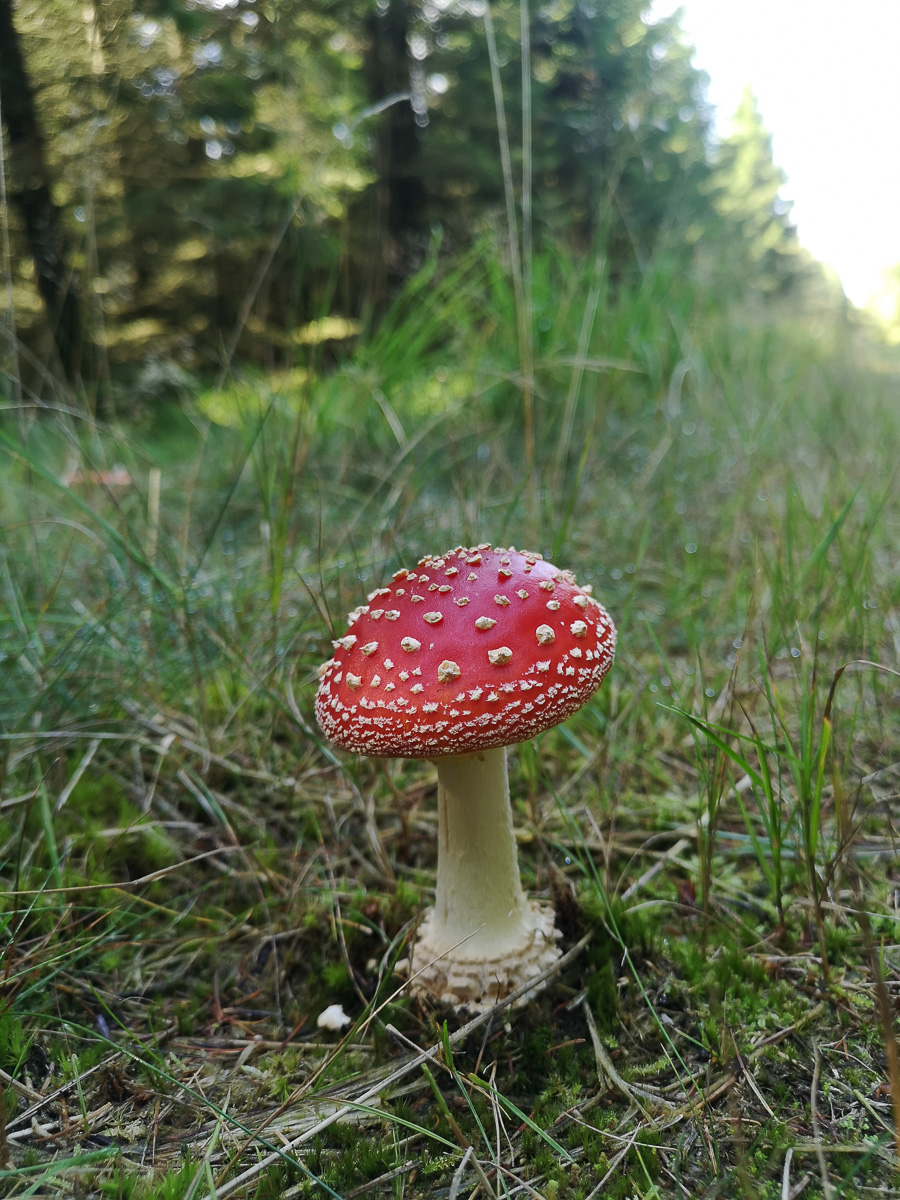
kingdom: Fungi
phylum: Basidiomycota
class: Agaricomycetes
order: Agaricales
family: Amanitaceae
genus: Amanita
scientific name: Amanita muscaria
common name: rød fluesvamp
